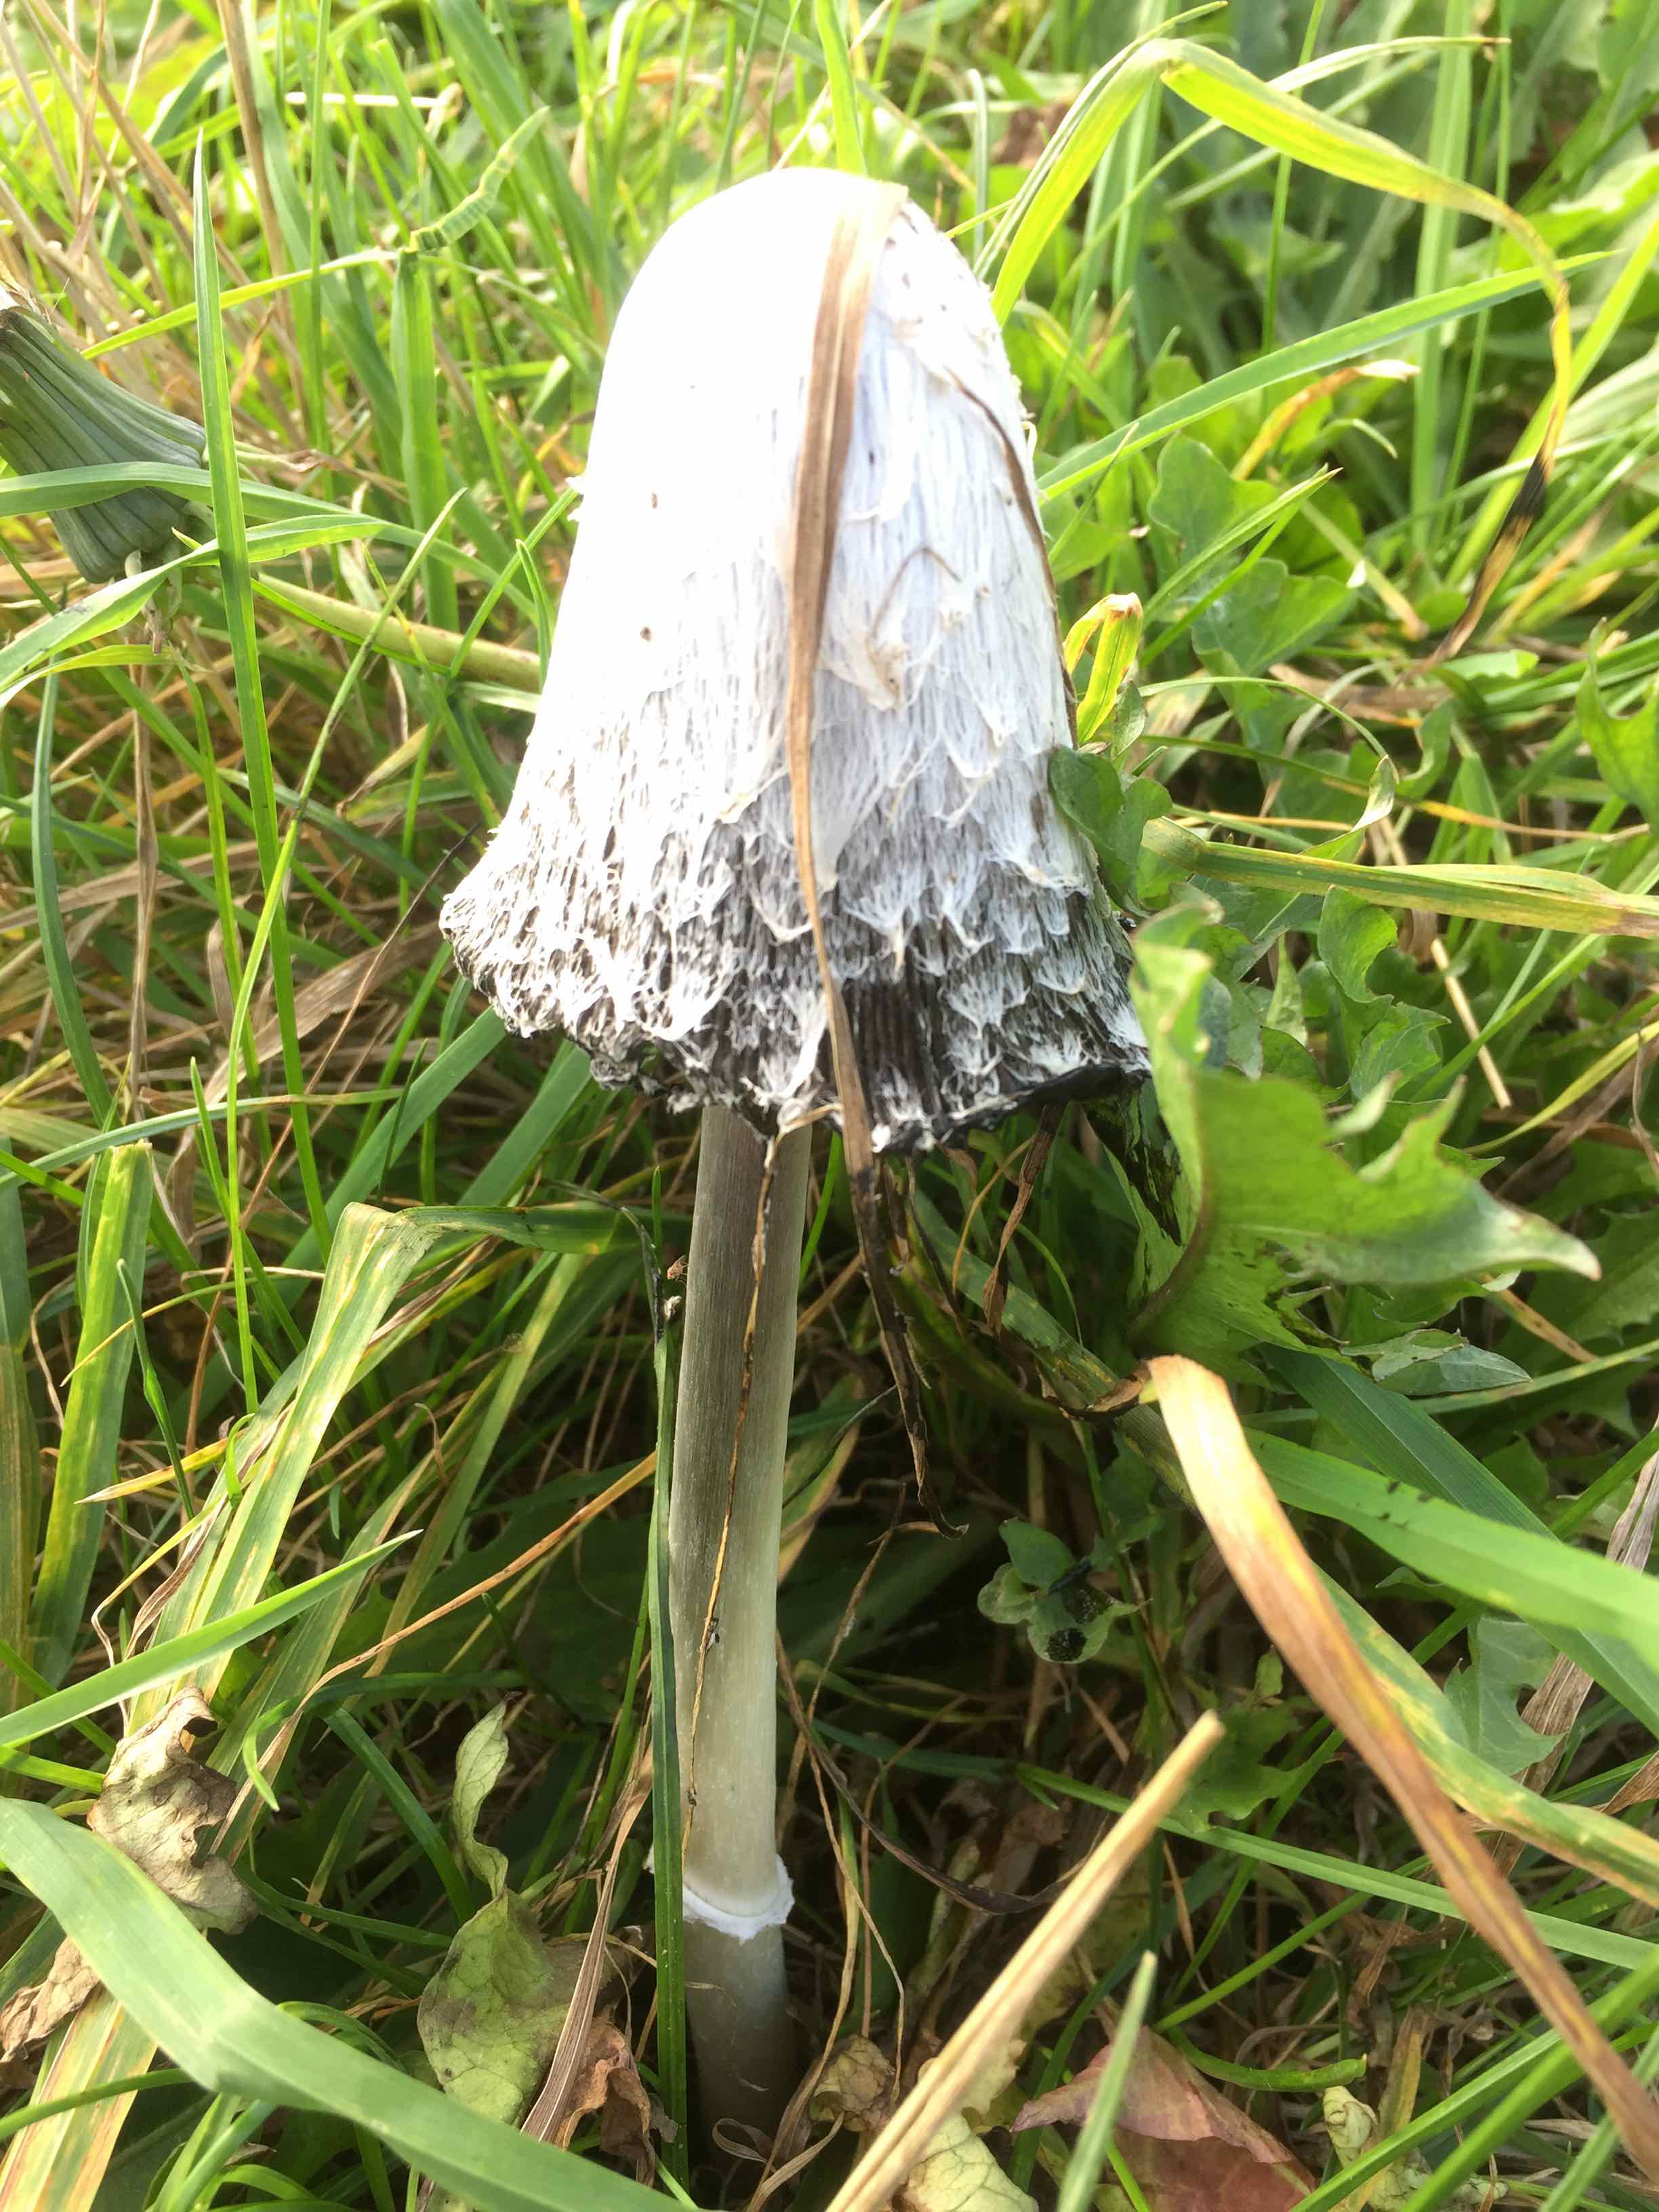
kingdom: Fungi
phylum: Basidiomycota
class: Agaricomycetes
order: Agaricales
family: Agaricaceae
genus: Coprinus
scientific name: Coprinus comatus
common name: stor parykhat
